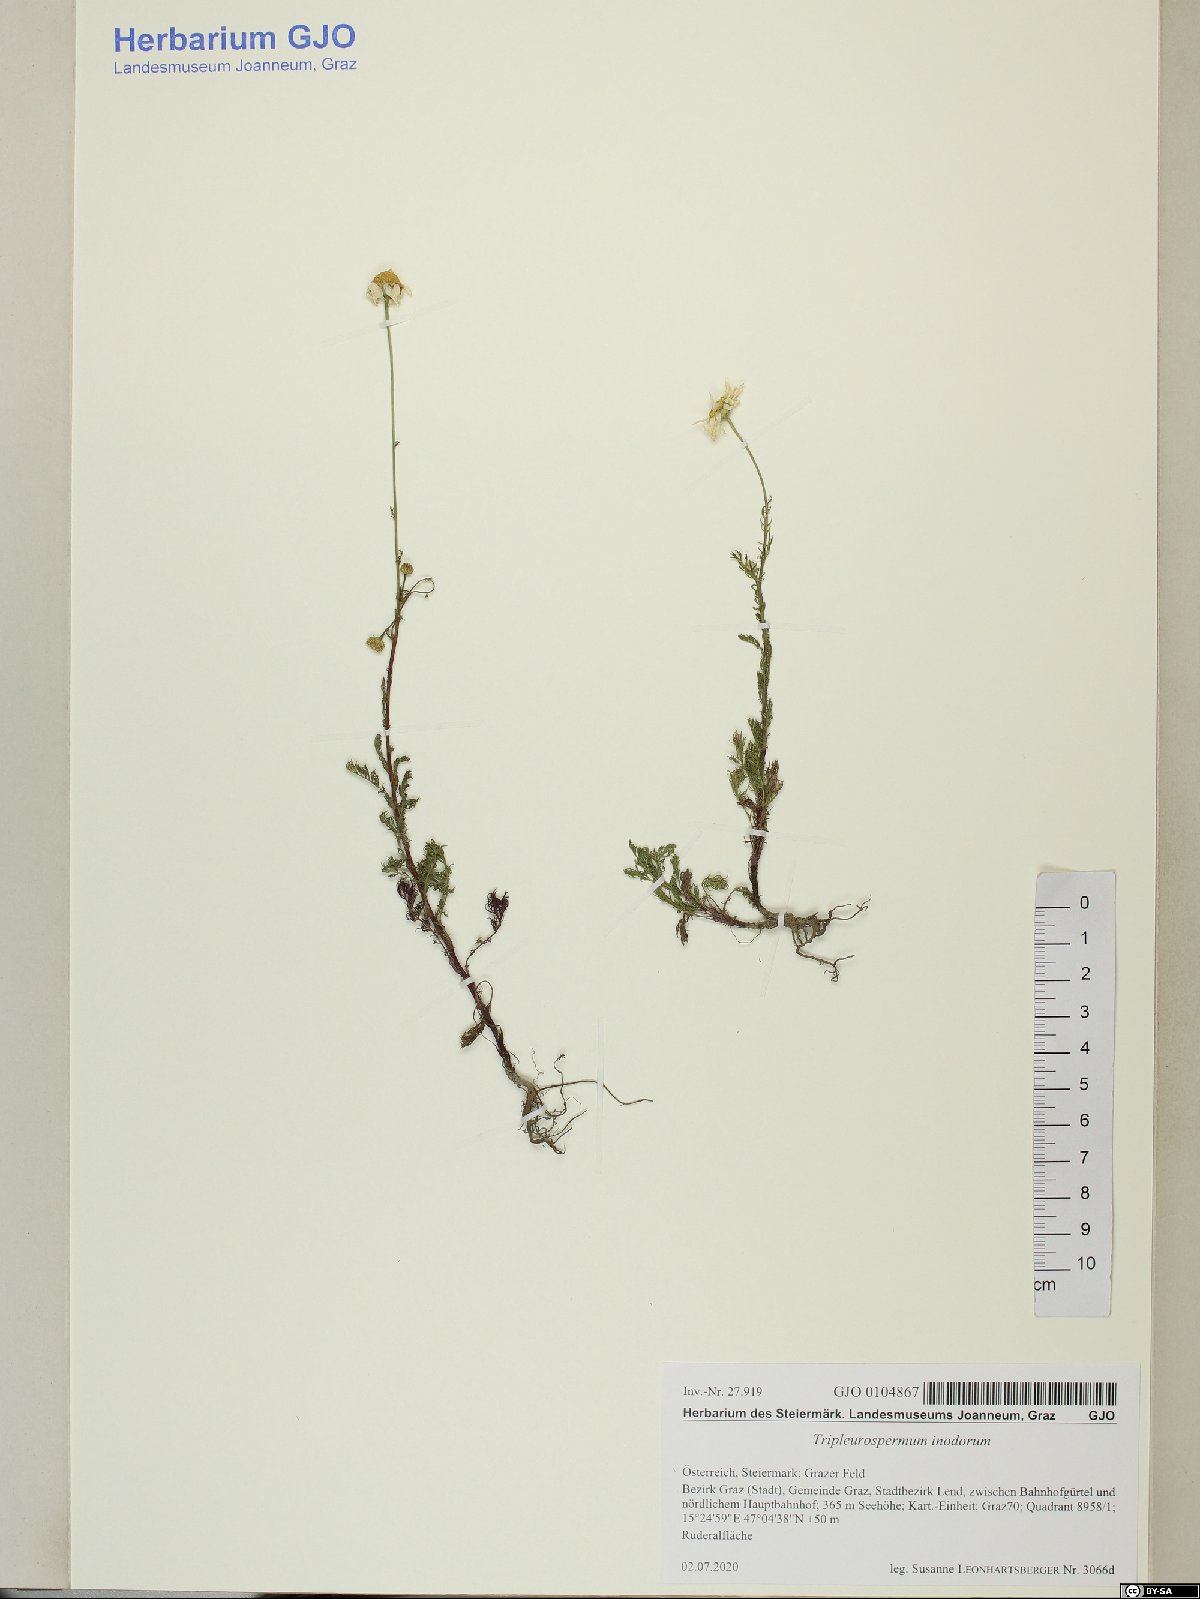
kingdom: Plantae
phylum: Tracheophyta
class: Magnoliopsida
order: Asterales
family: Asteraceae
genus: Tripleurospermum
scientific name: Tripleurospermum inodorum
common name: Scentless mayweed
